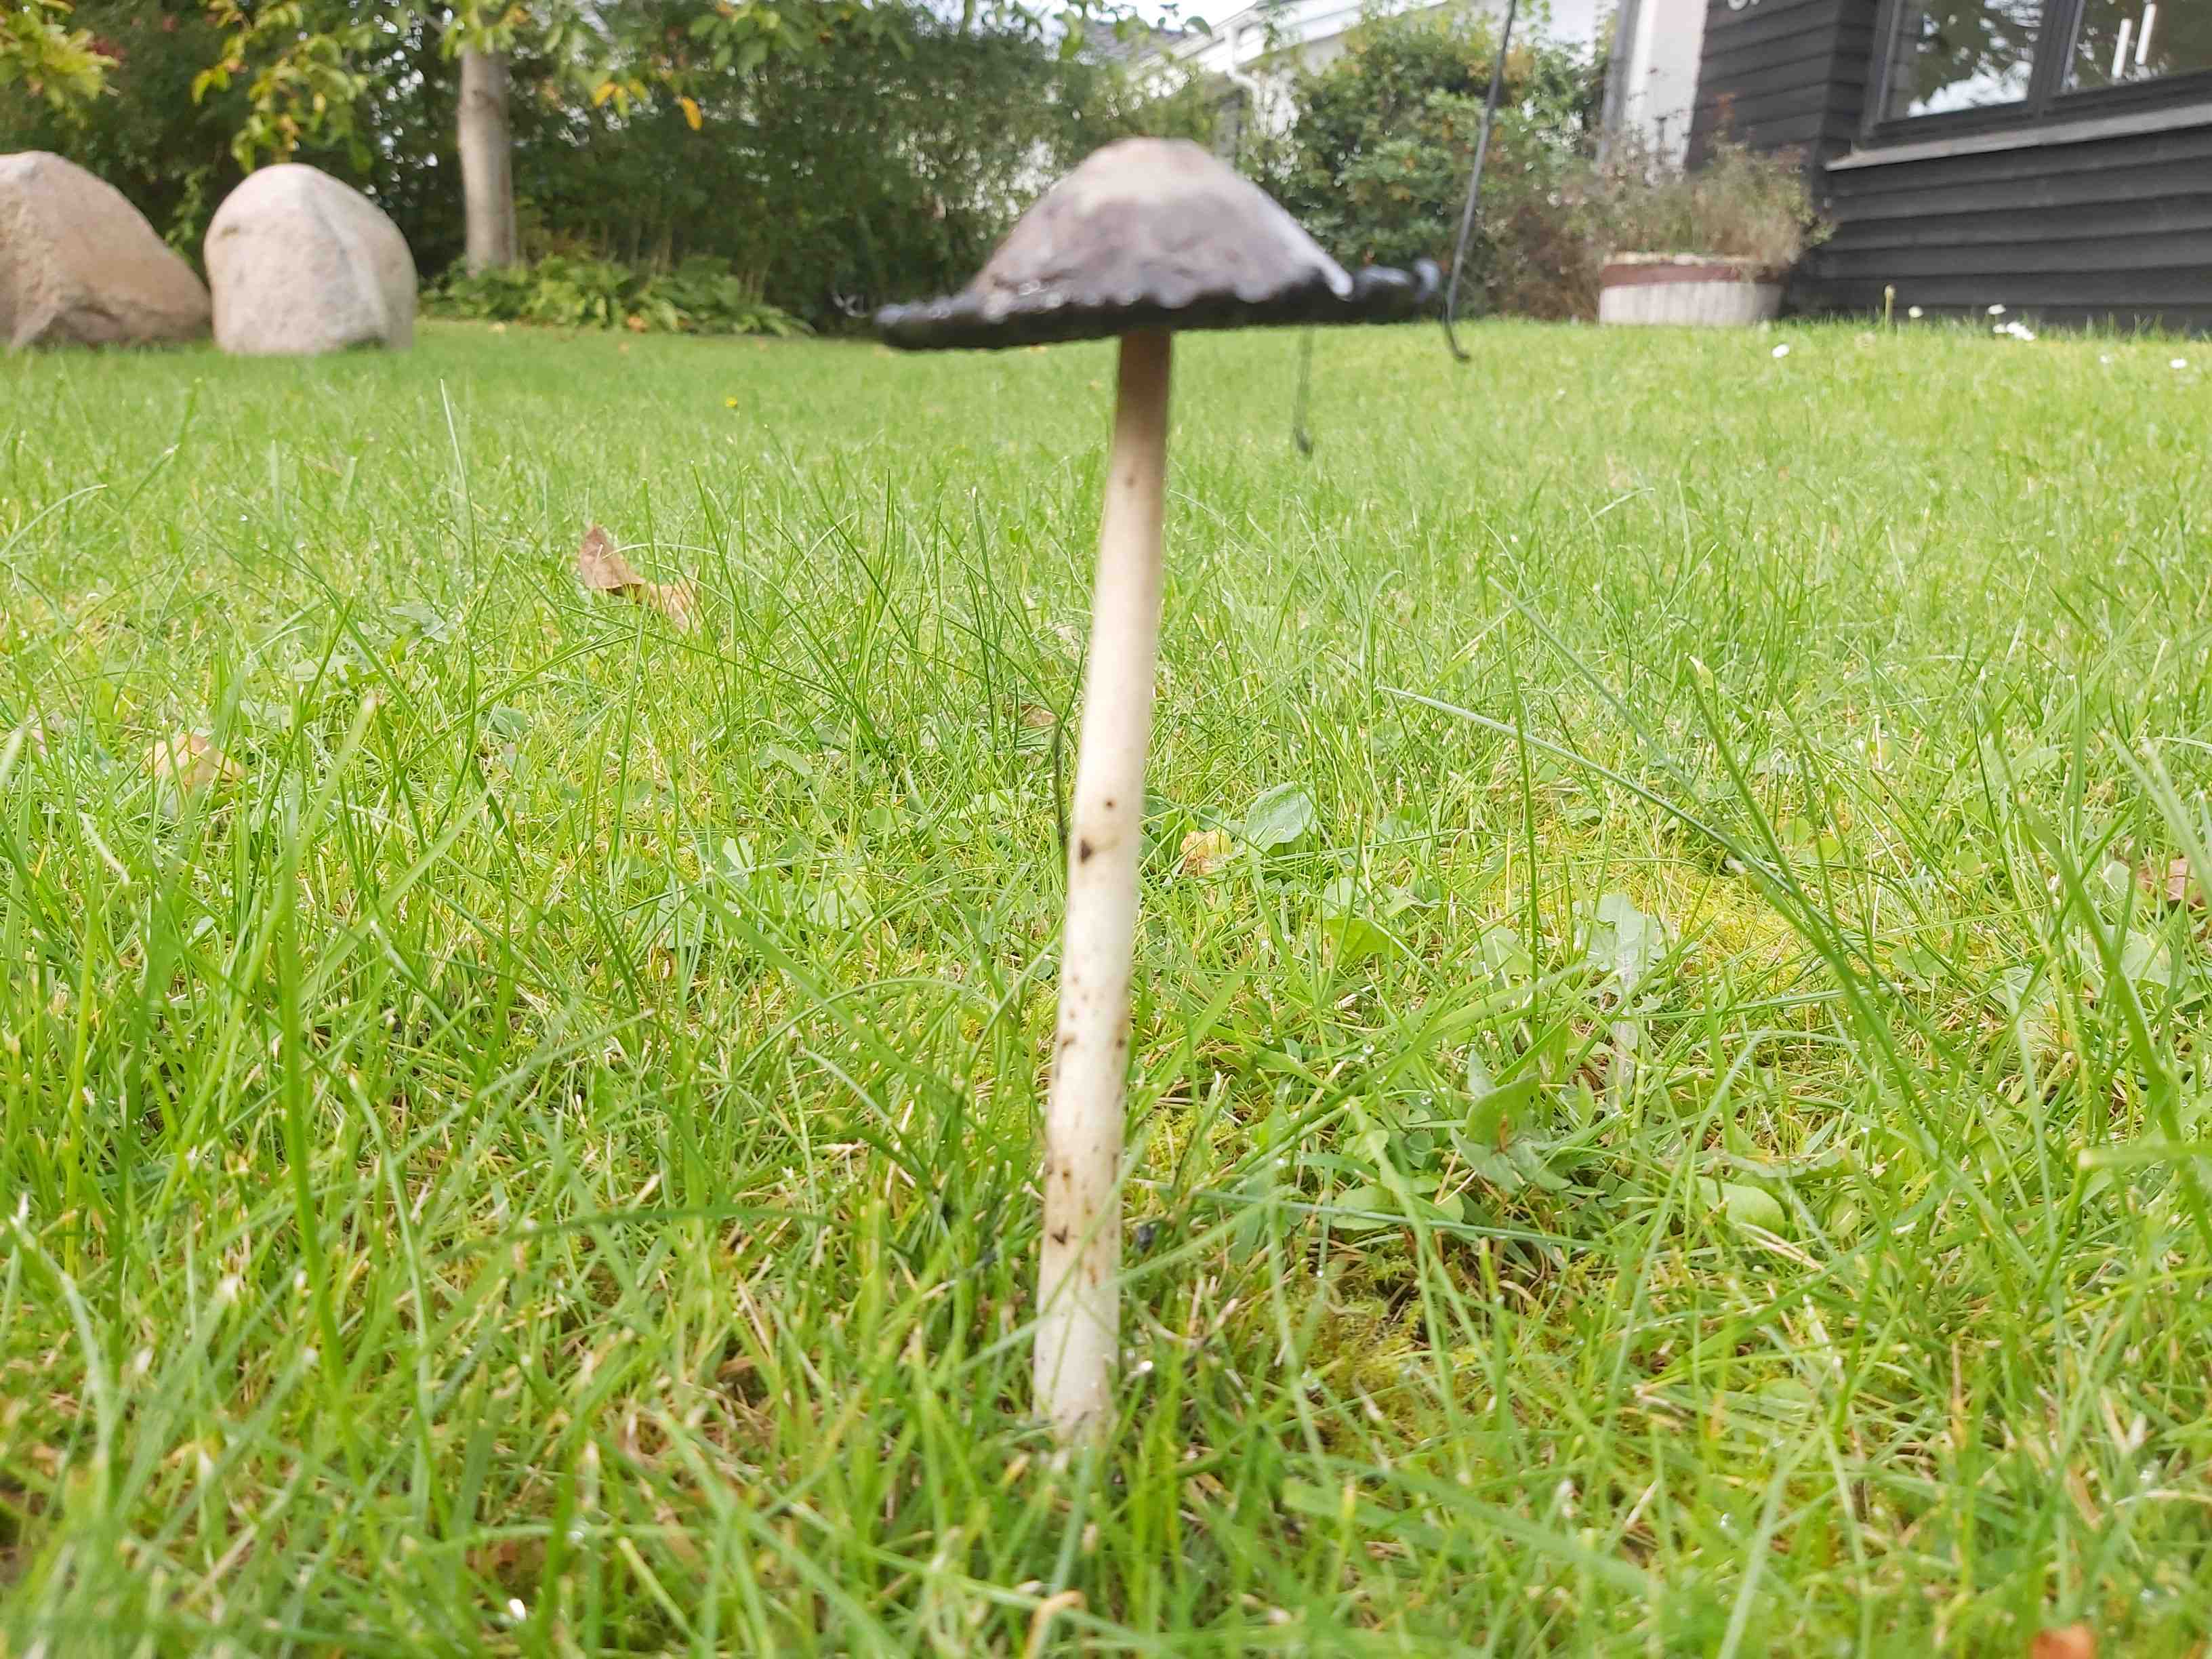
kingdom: Fungi
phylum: Basidiomycota
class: Agaricomycetes
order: Agaricales
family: Agaricaceae
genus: Coprinus
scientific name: Coprinus comatus
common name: stor parykhat
